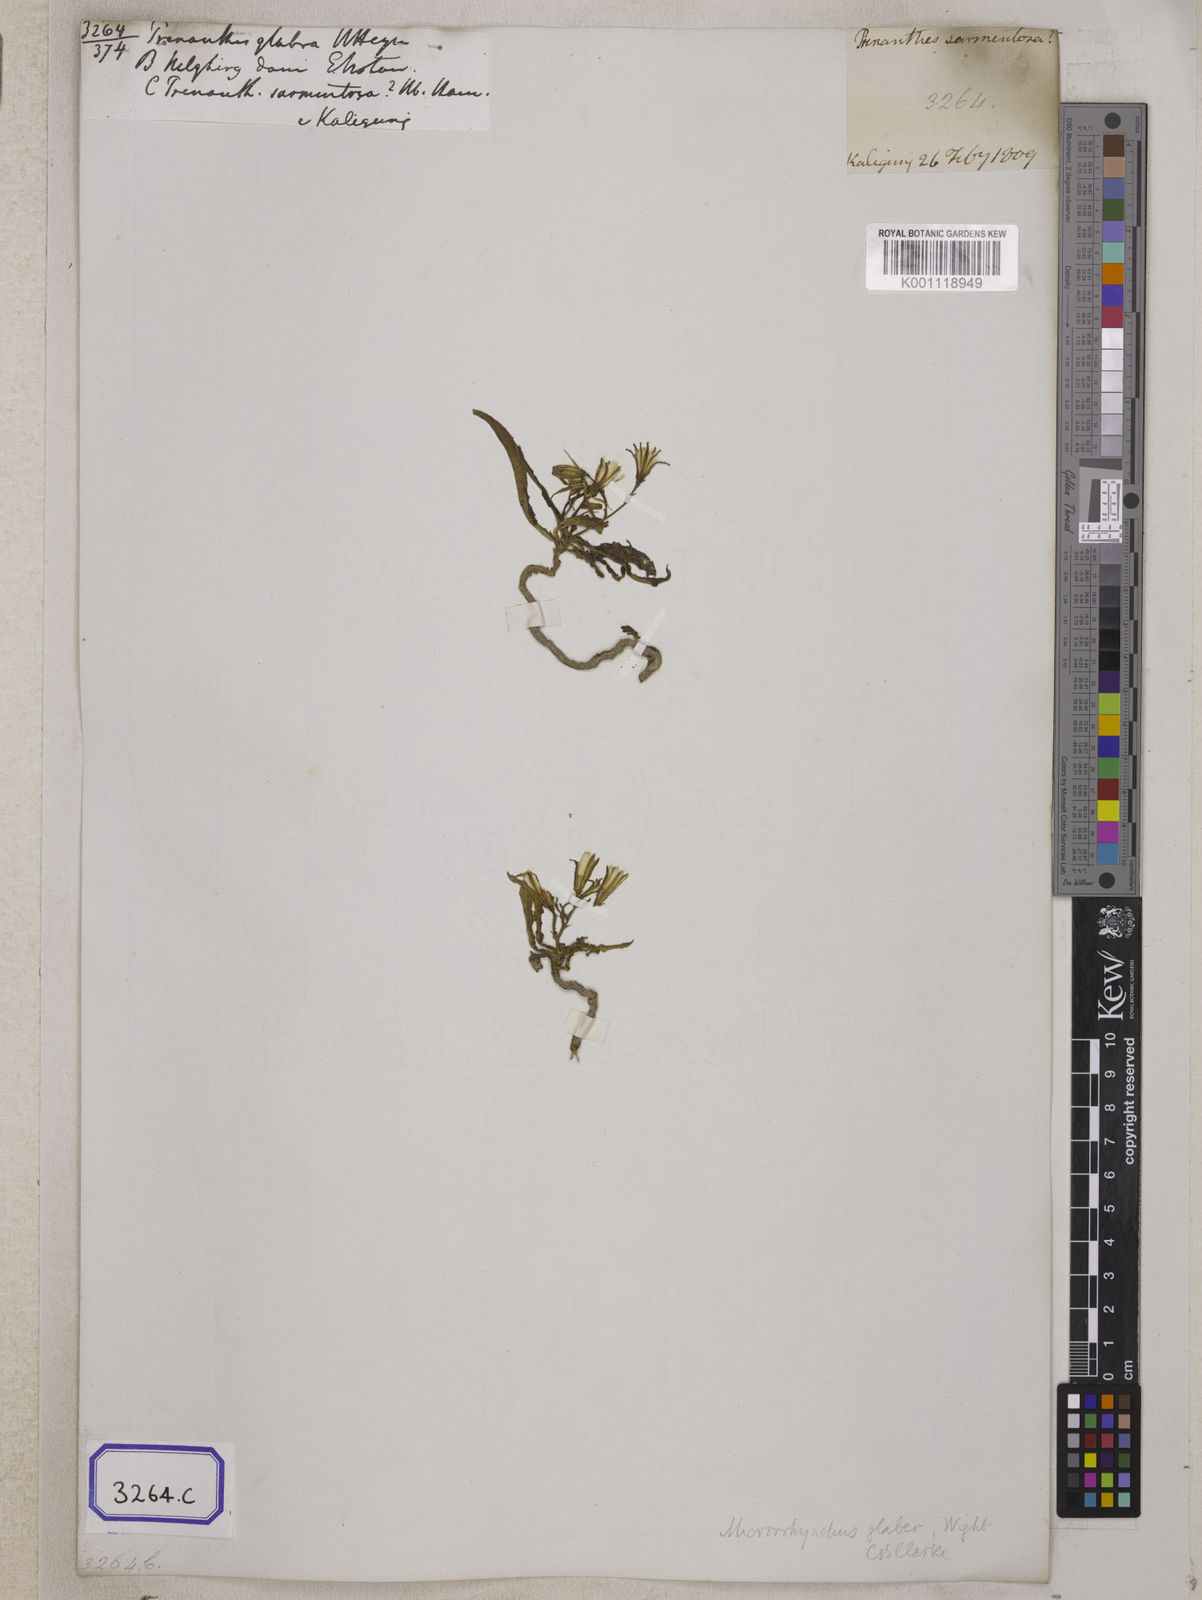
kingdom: Plantae
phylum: Tracheophyta
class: Magnoliopsida
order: Asterales
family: Asteraceae
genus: Launaea
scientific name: Launaea acaulis
